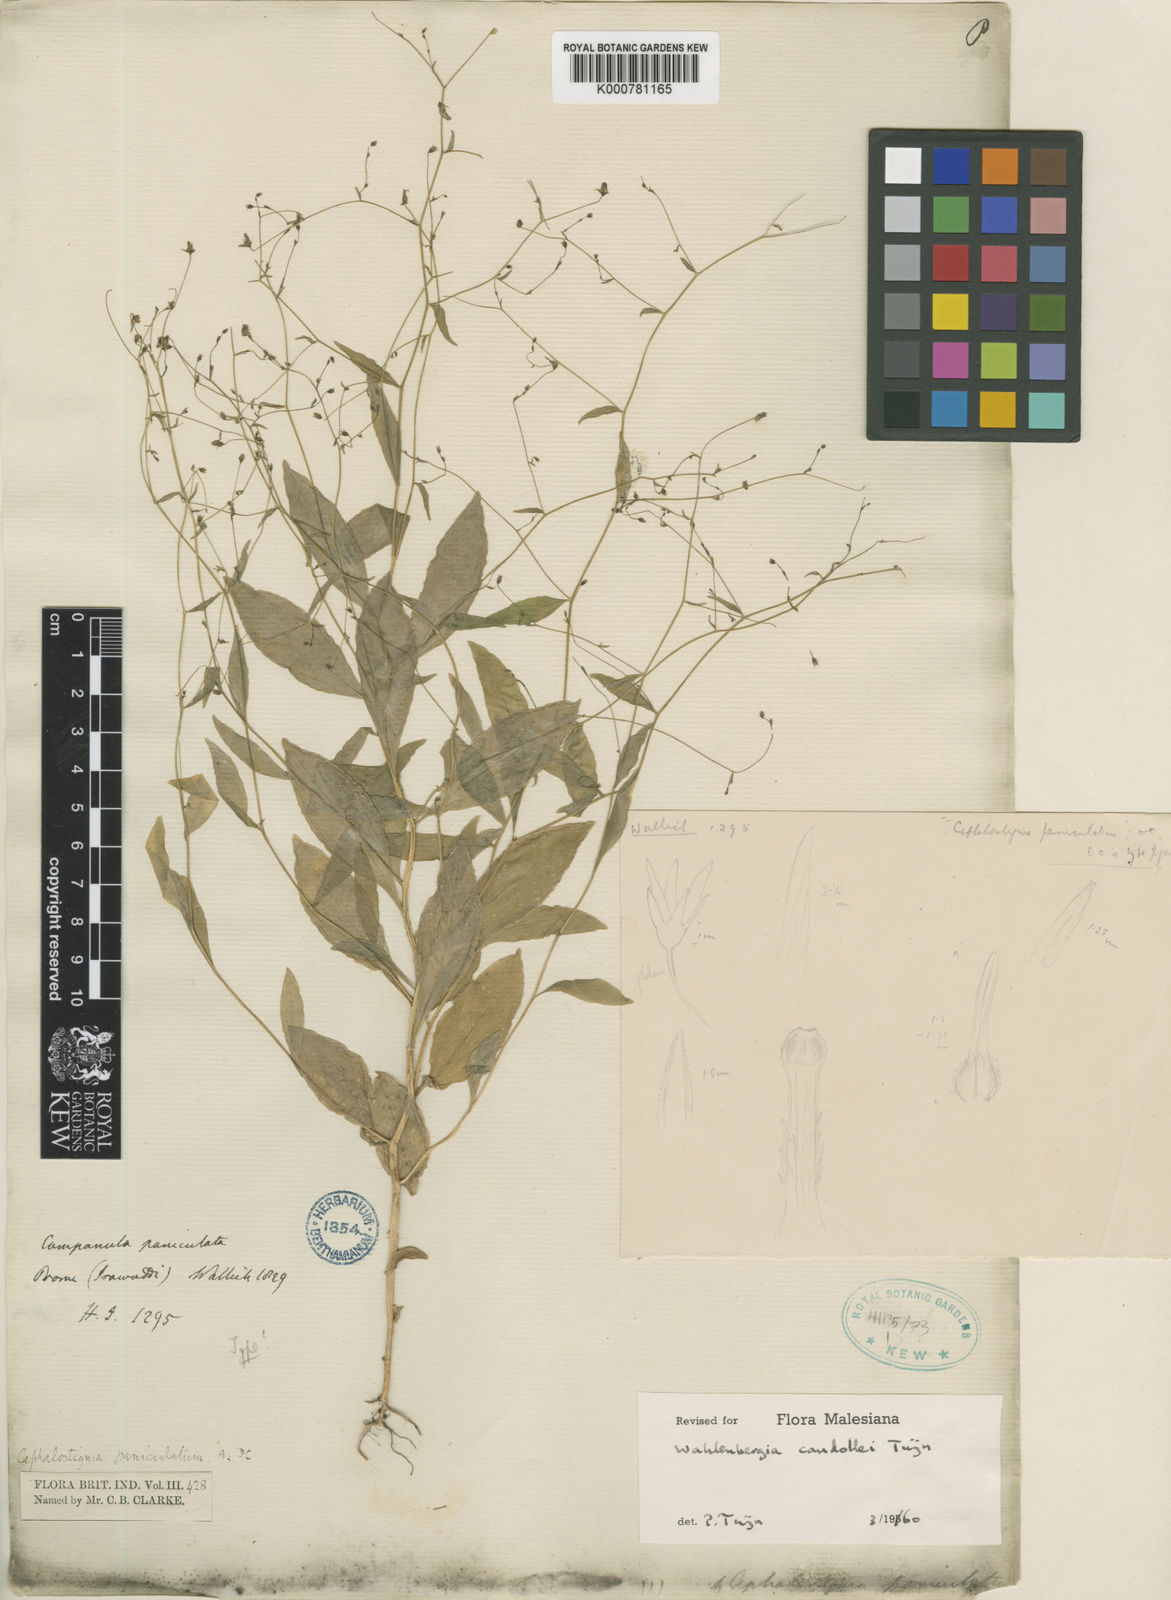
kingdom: Plantae
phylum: Tracheophyta
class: Magnoliopsida
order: Asterales
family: Campanulaceae
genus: Wahlenbergia
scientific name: Wahlenbergia candollei
